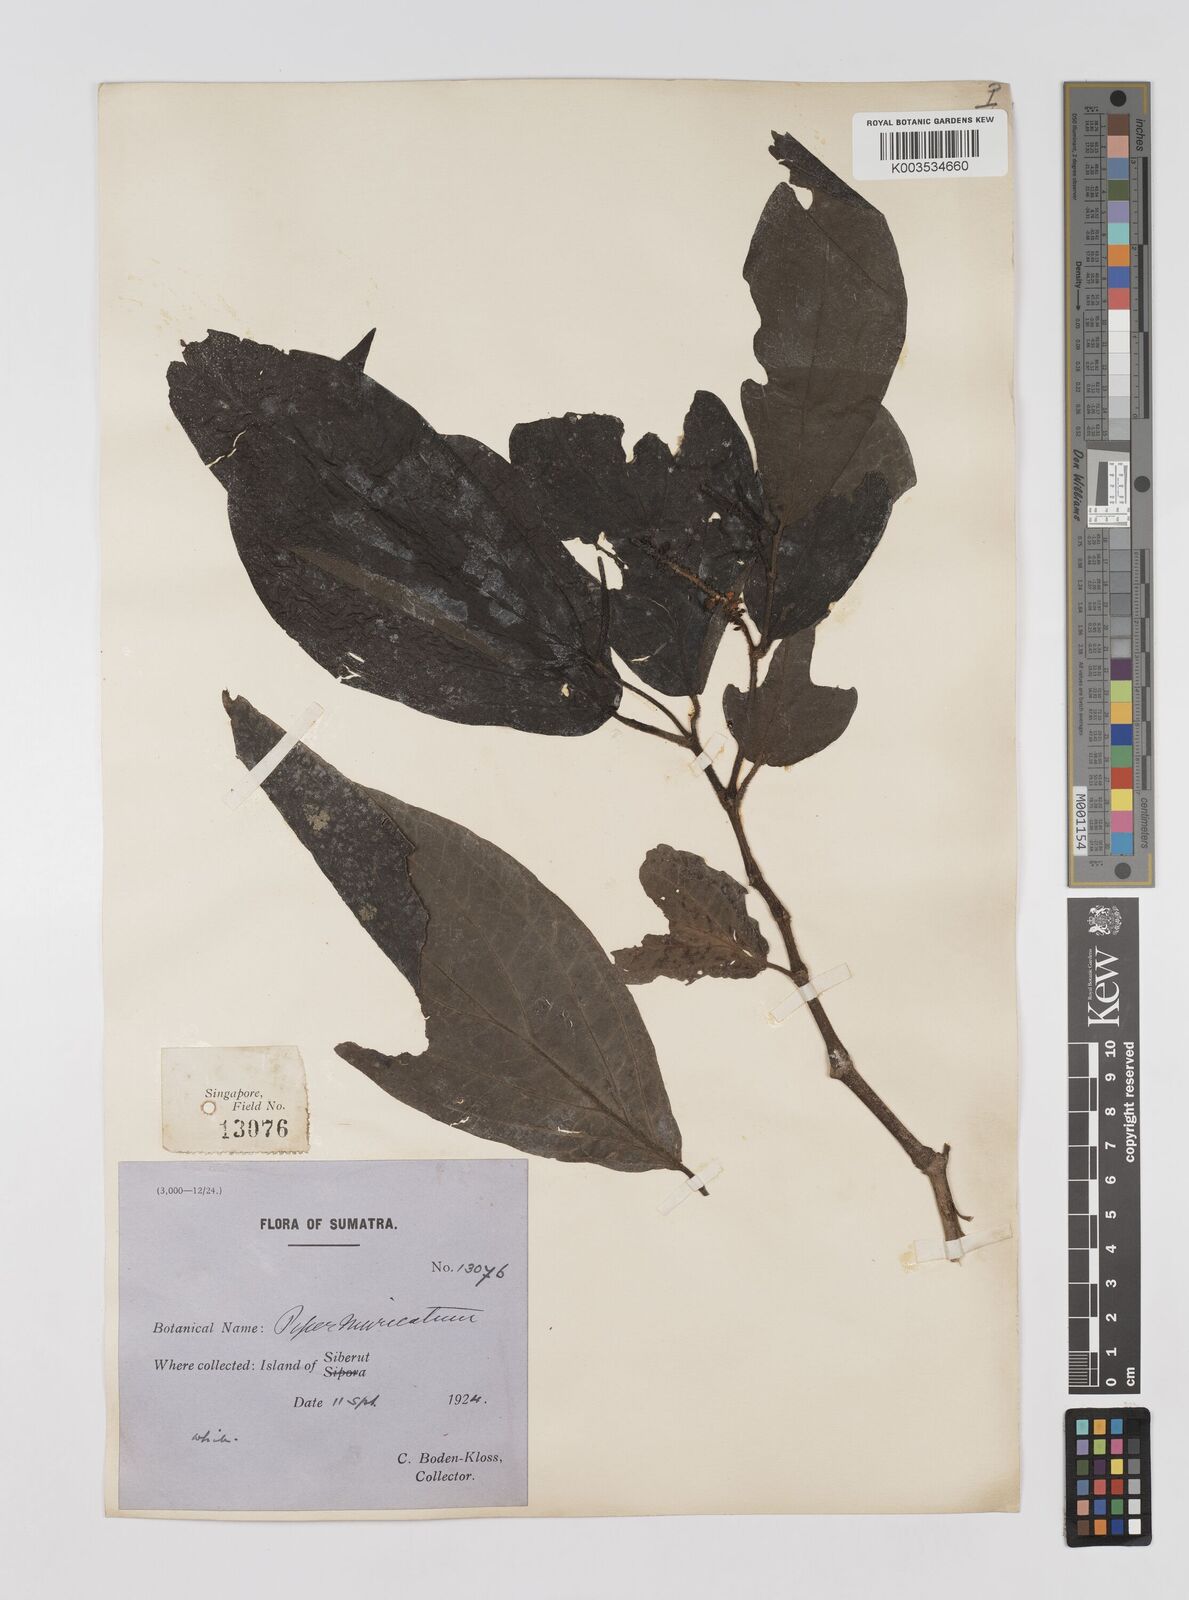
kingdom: Plantae
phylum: Tracheophyta
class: Magnoliopsida
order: Piperales
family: Piperaceae
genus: Piper
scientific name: Piper muricatum
